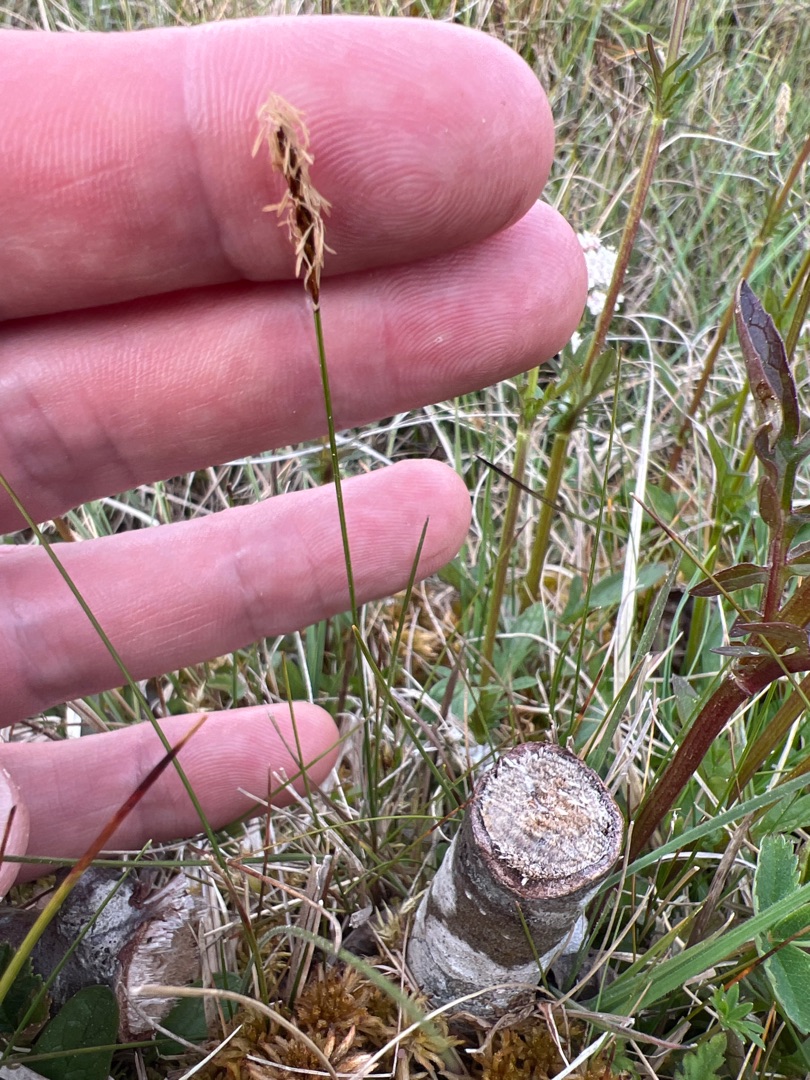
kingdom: Plantae
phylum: Tracheophyta
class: Liliopsida
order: Poales
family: Cyperaceae
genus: Carex
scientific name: Carex dioica
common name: Tvebo star
